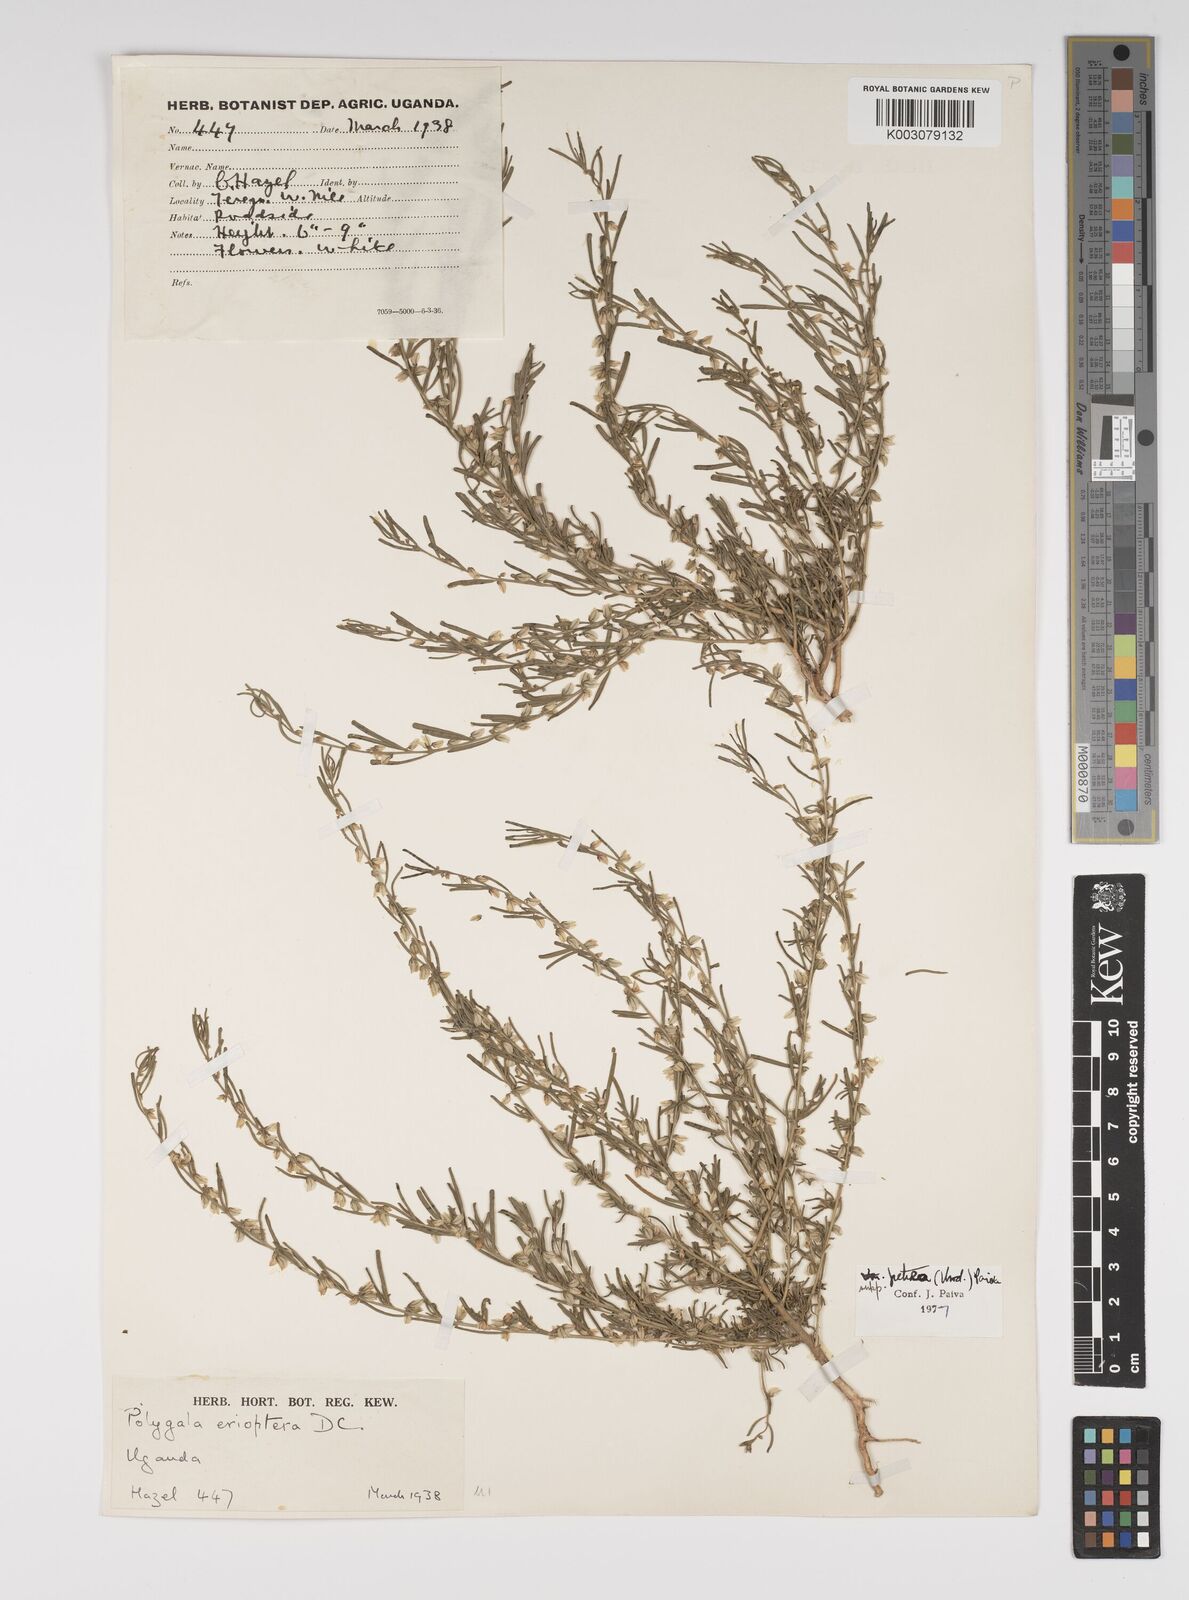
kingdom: Plantae
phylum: Tracheophyta
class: Magnoliopsida
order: Fabales
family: Polygalaceae
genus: Polygala
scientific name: Polygala erioptera
